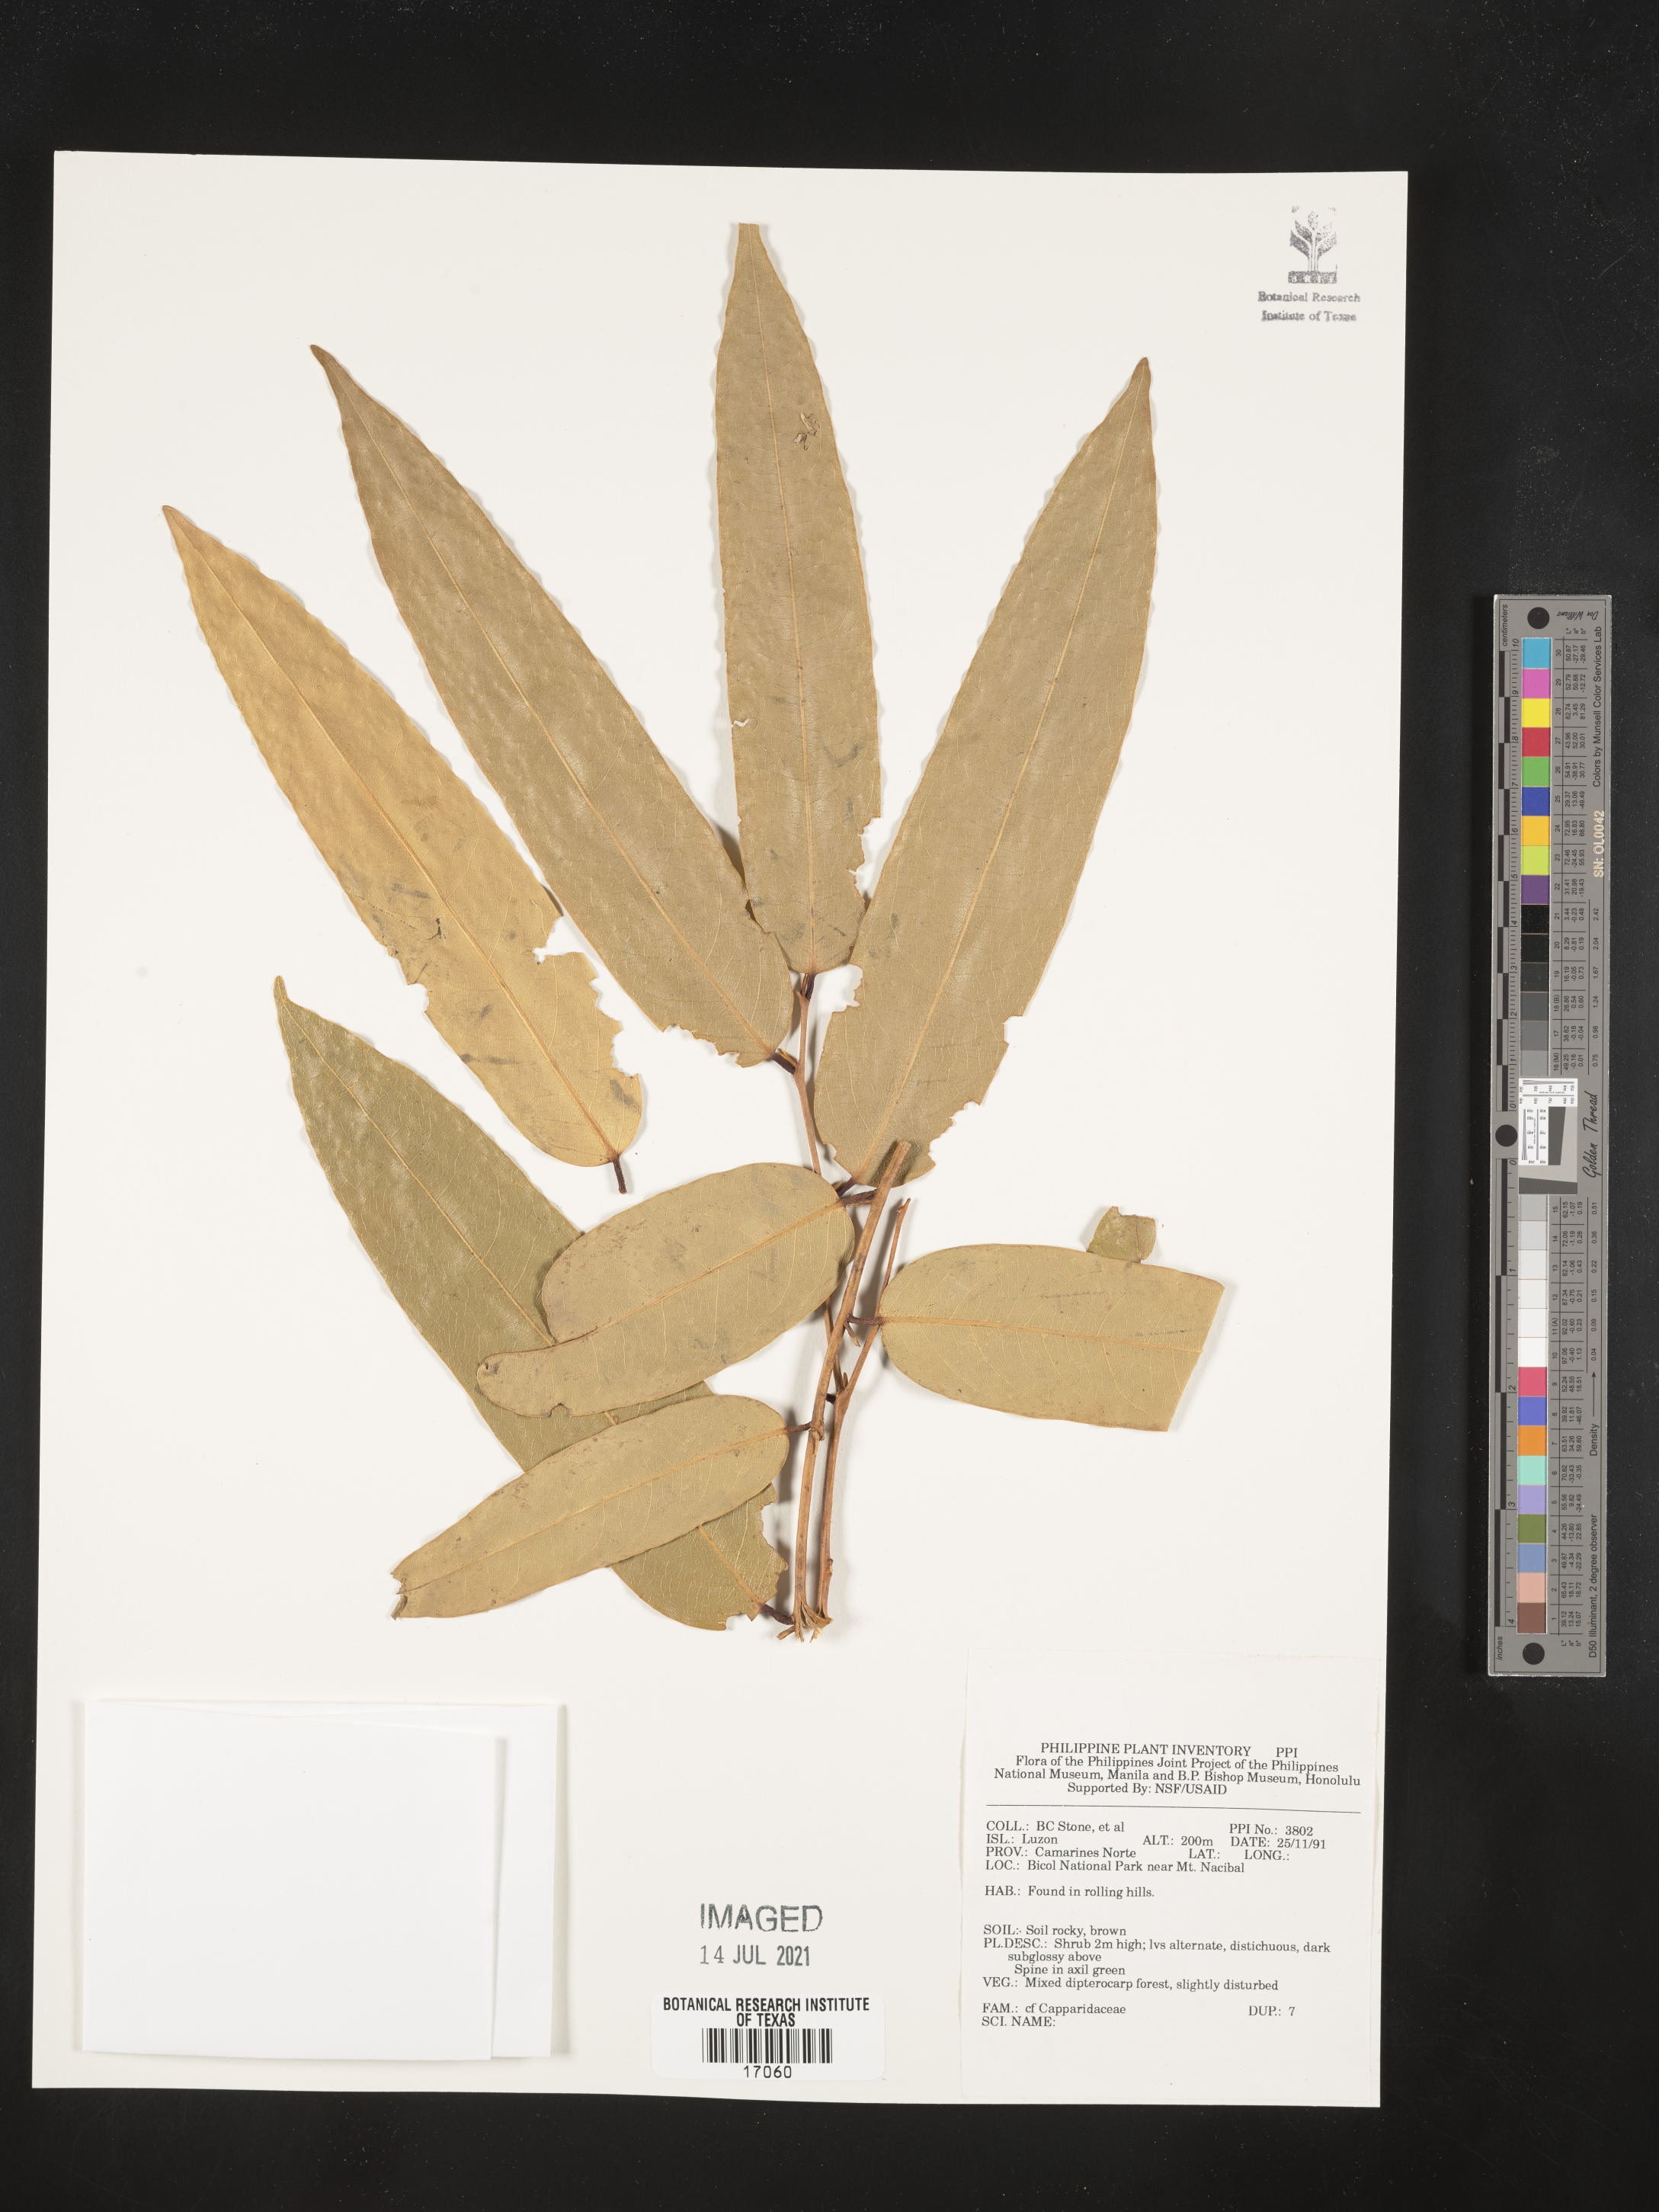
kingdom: Plantae
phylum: Tracheophyta
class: Magnoliopsida
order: Brassicales
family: Capparaceae
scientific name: Capparaceae
